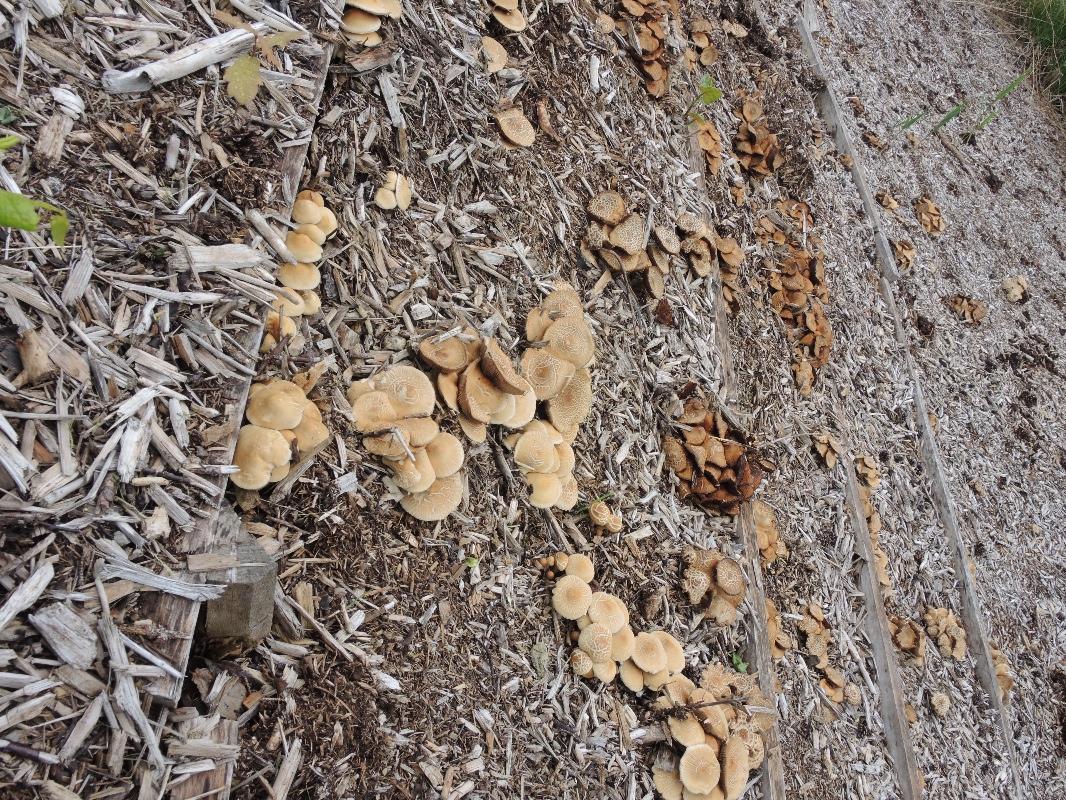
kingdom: Fungi
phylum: Basidiomycota
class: Agaricomycetes
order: Agaricales
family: Strophariaceae
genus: Agrocybe
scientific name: Agrocybe praecox
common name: tidlig agerhat
